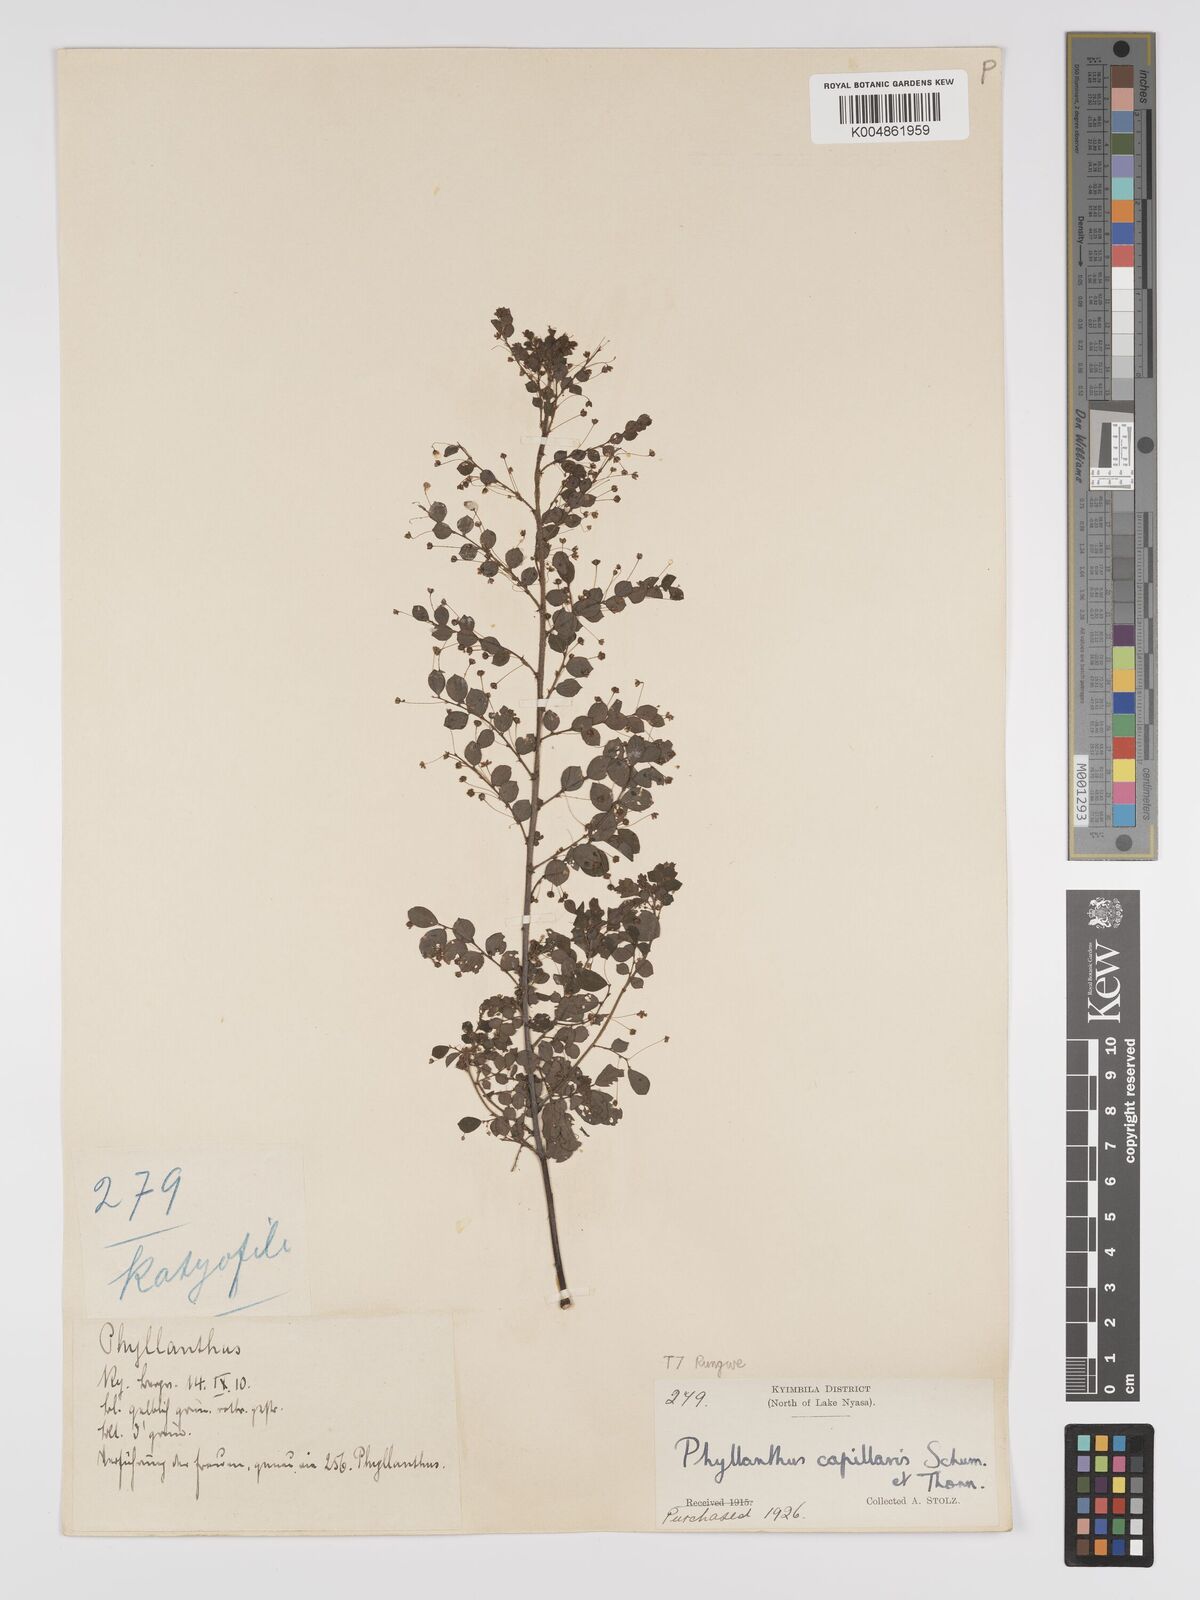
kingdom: Plantae
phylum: Tracheophyta
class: Magnoliopsida
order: Malpighiales
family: Phyllanthaceae
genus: Phyllanthus
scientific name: Phyllanthus nummulariifolius
